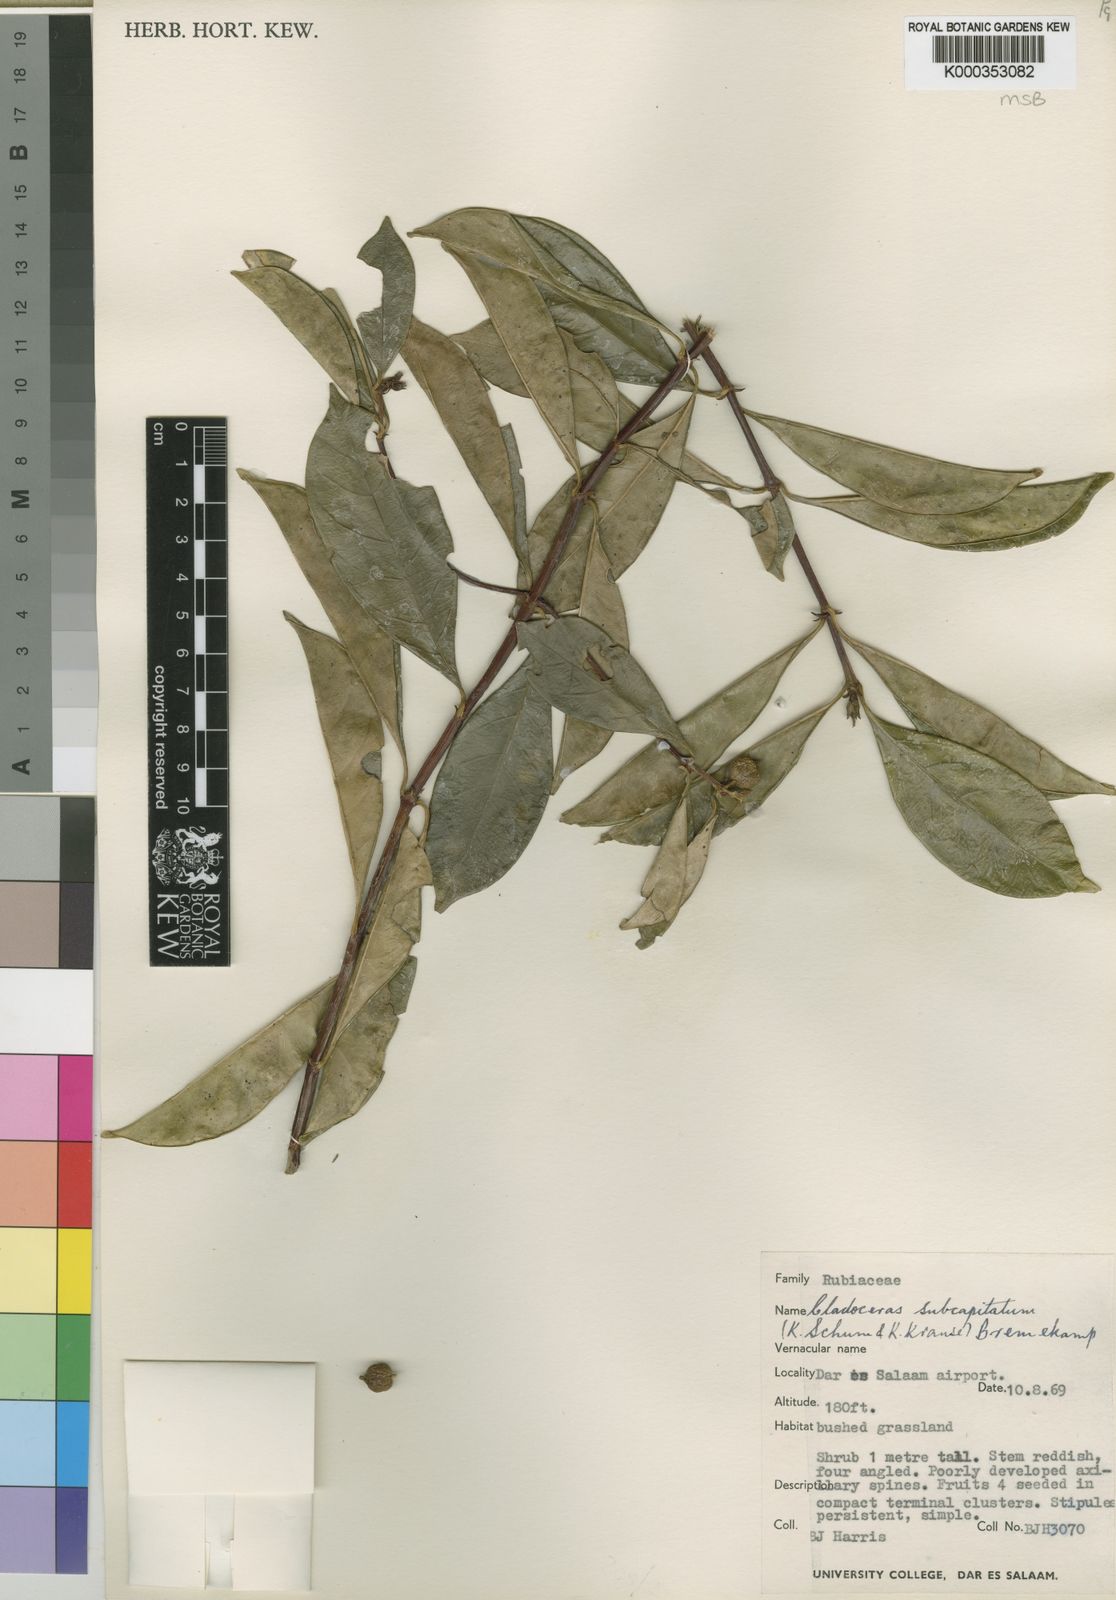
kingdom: Plantae
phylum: Tracheophyta
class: Magnoliopsida
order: Gentianales
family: Rubiaceae
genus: Cladoceras
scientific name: Cladoceras subcapitatum
